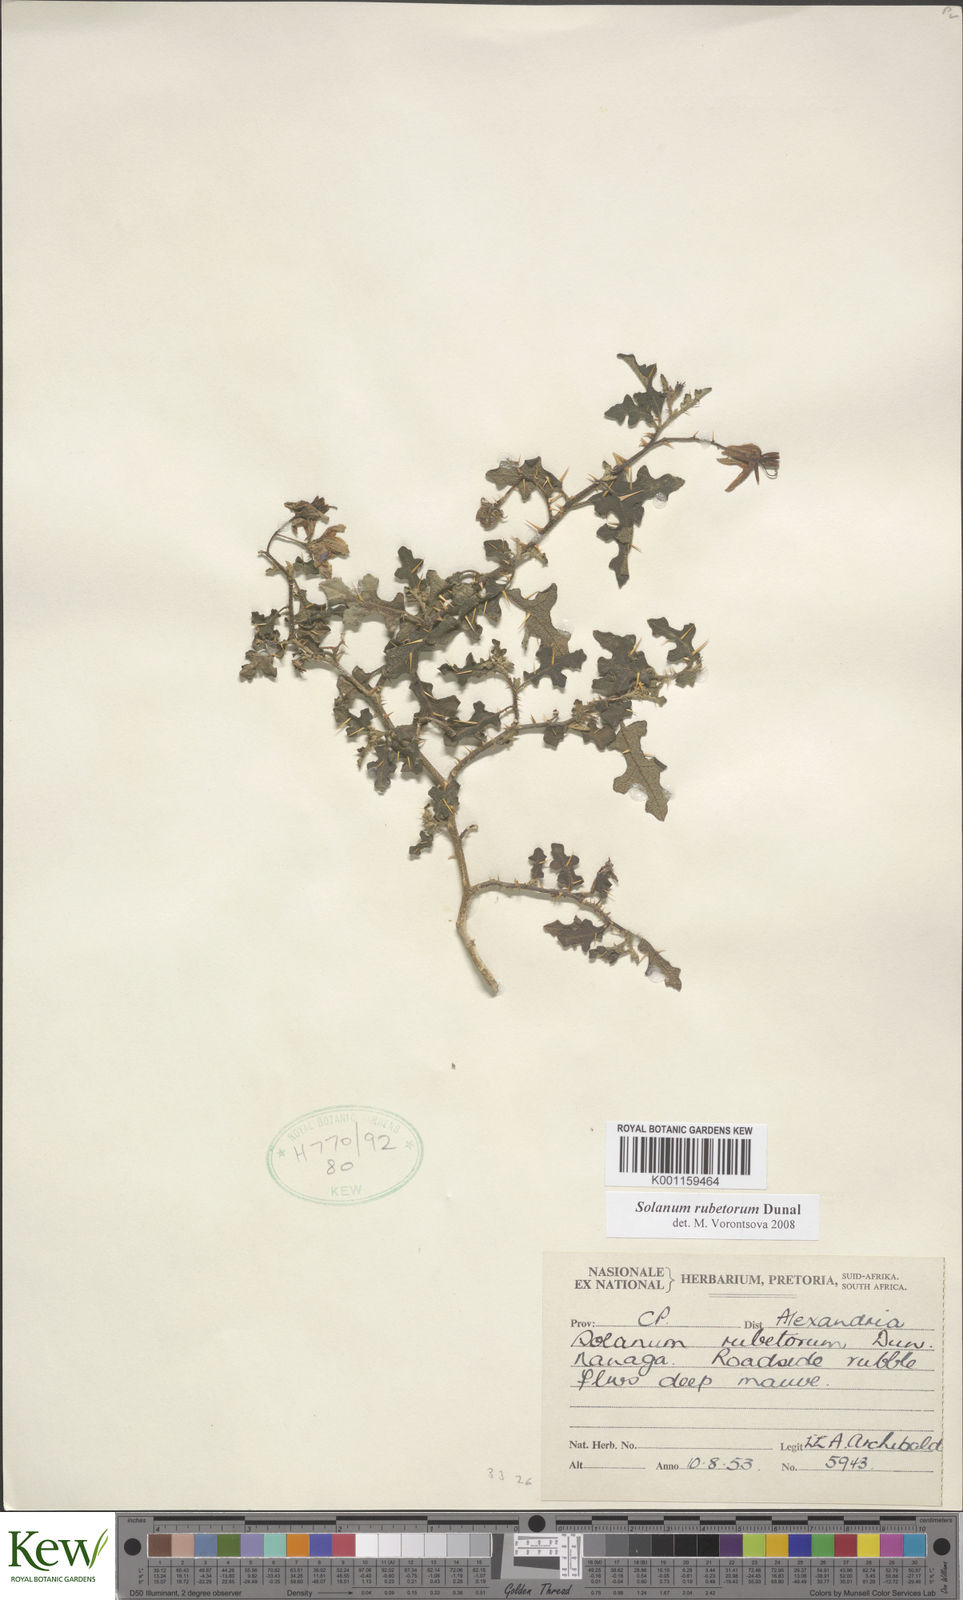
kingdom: Plantae
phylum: Tracheophyta
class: Magnoliopsida
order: Solanales
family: Solanaceae
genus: Solanum
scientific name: Solanum rubetorum
